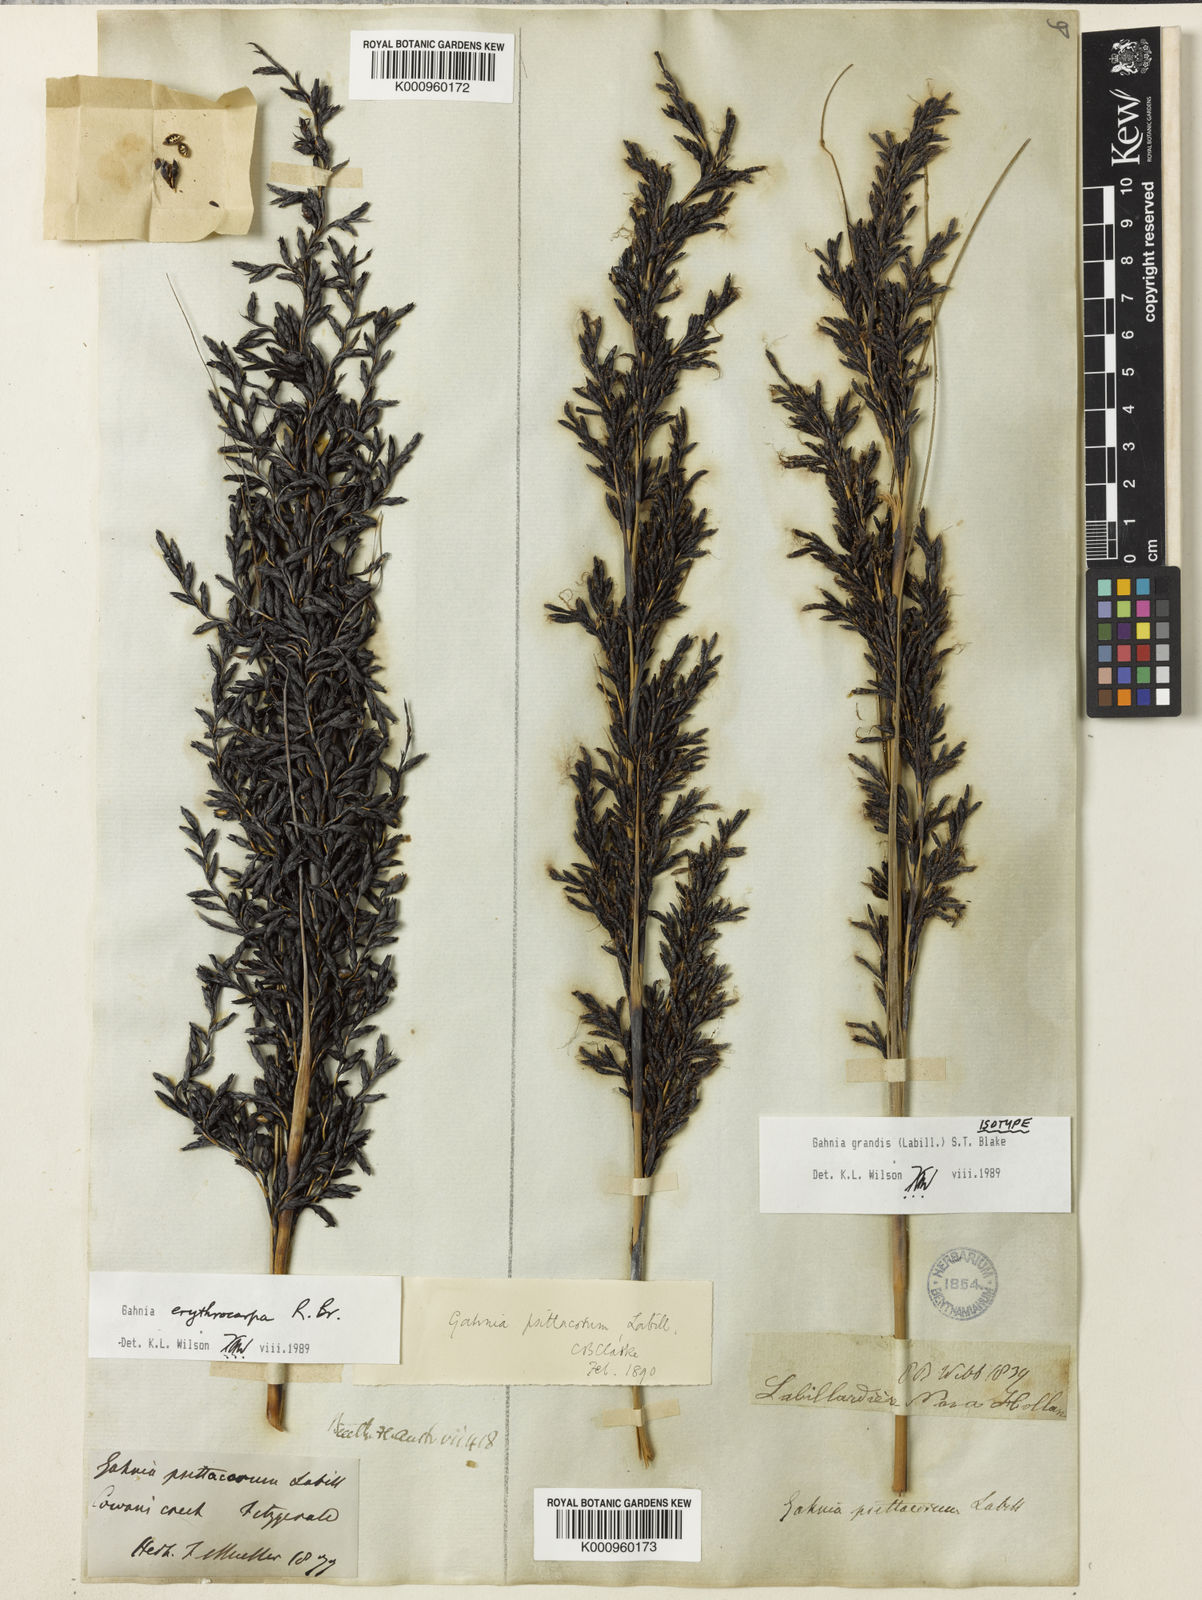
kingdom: Plantae
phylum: Tracheophyta
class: Liliopsida
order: Poales
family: Cyperaceae
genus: Gahnia
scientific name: Gahnia grandis
